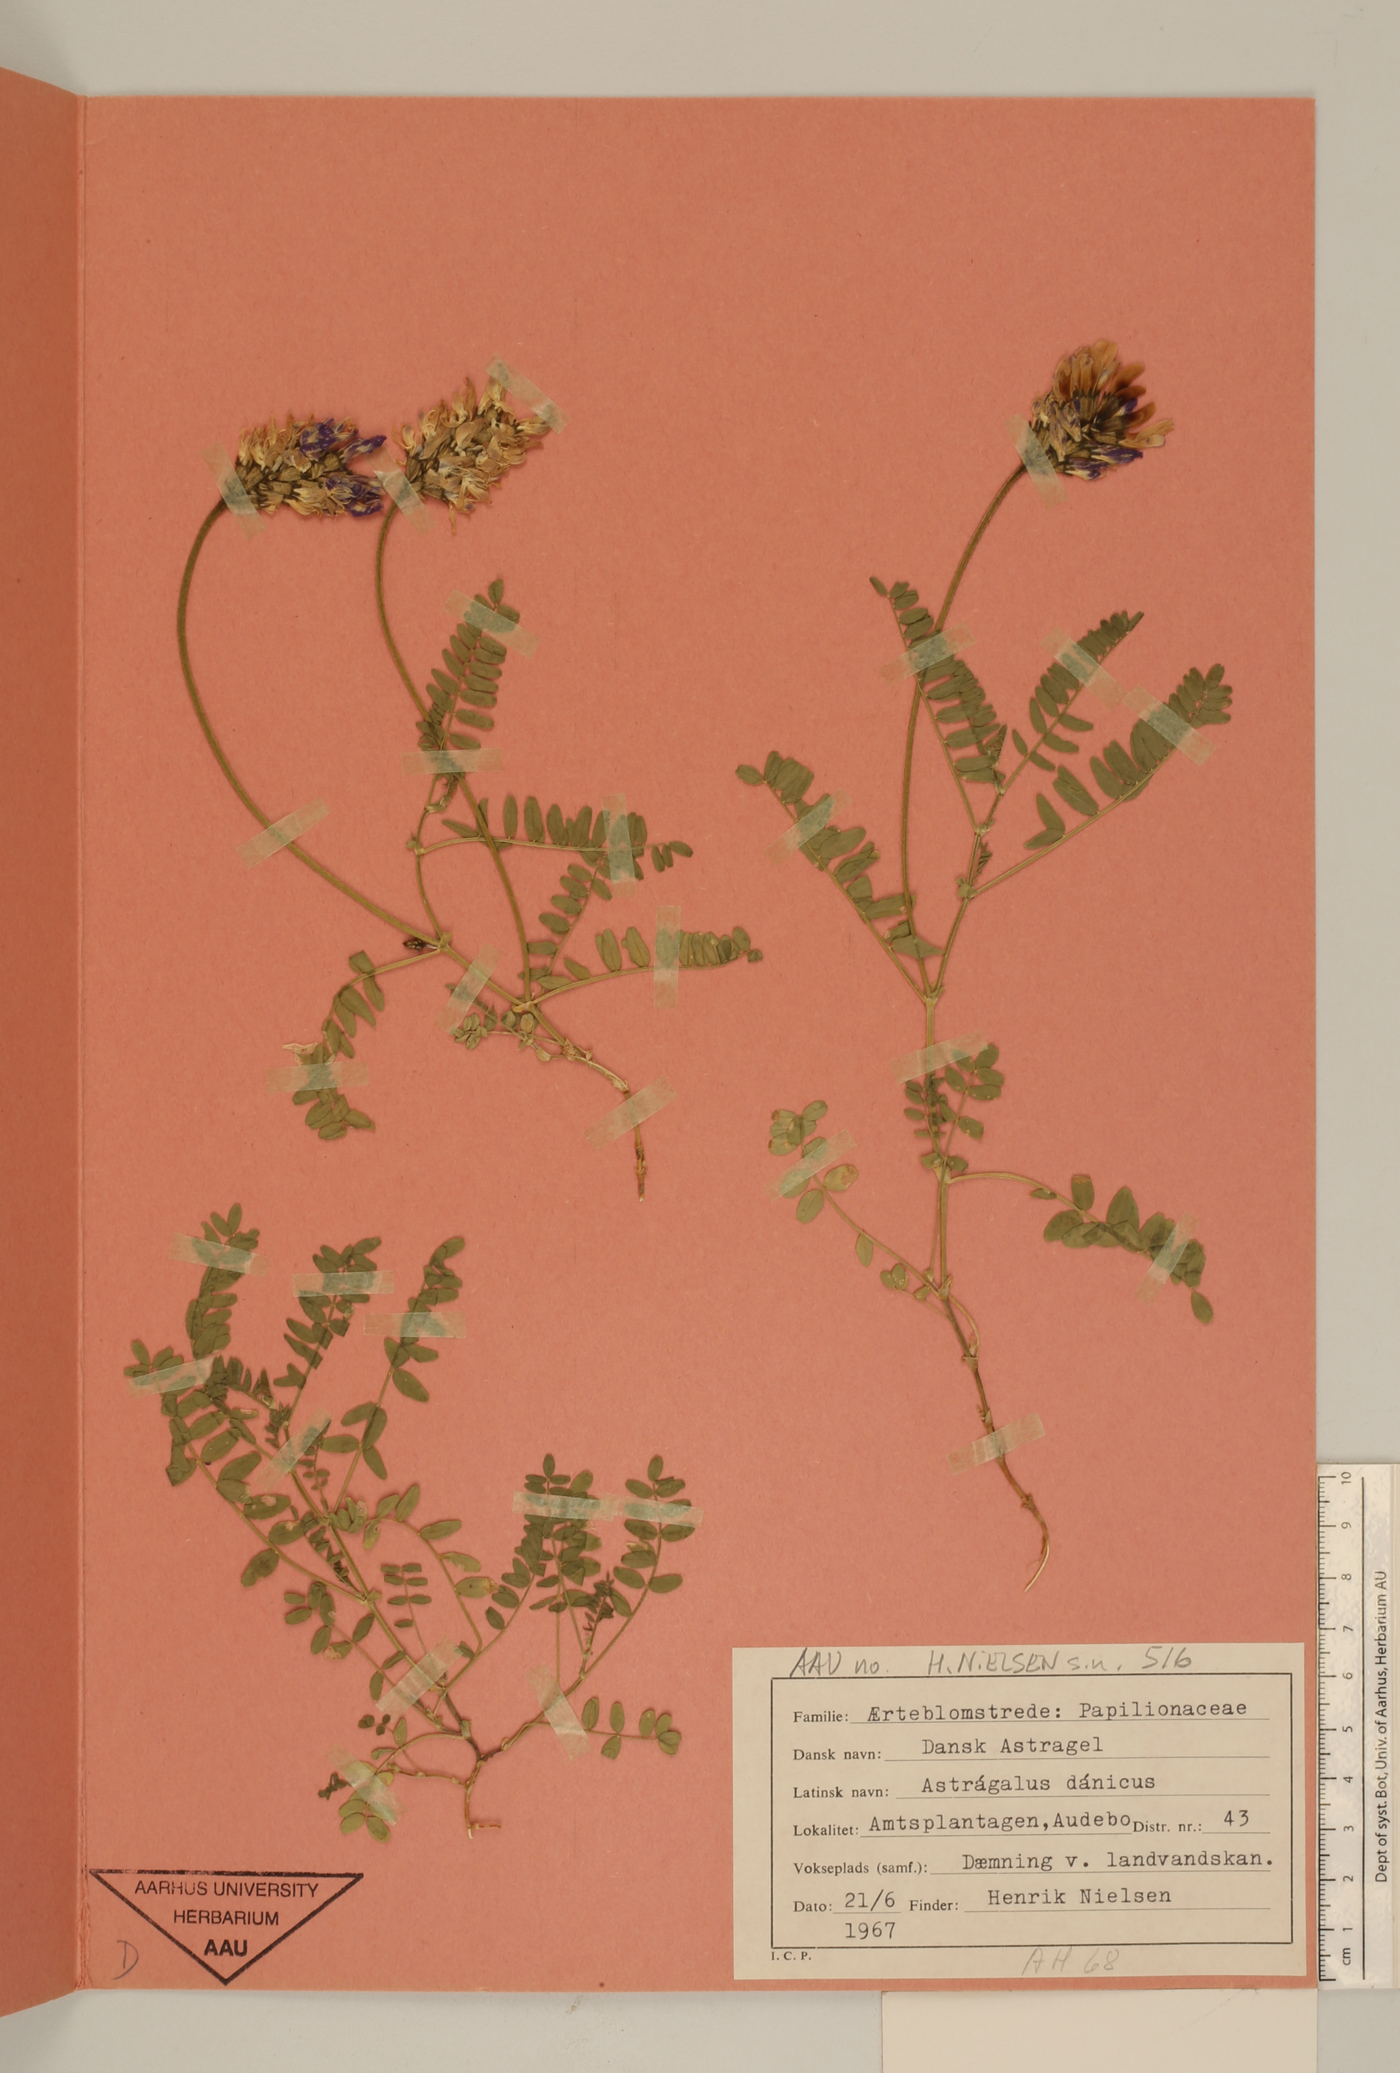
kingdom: Plantae
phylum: Tracheophyta
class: Magnoliopsida
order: Fabales
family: Fabaceae
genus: Astragalus
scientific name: Astragalus danicus
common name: Purple milk-vetch
